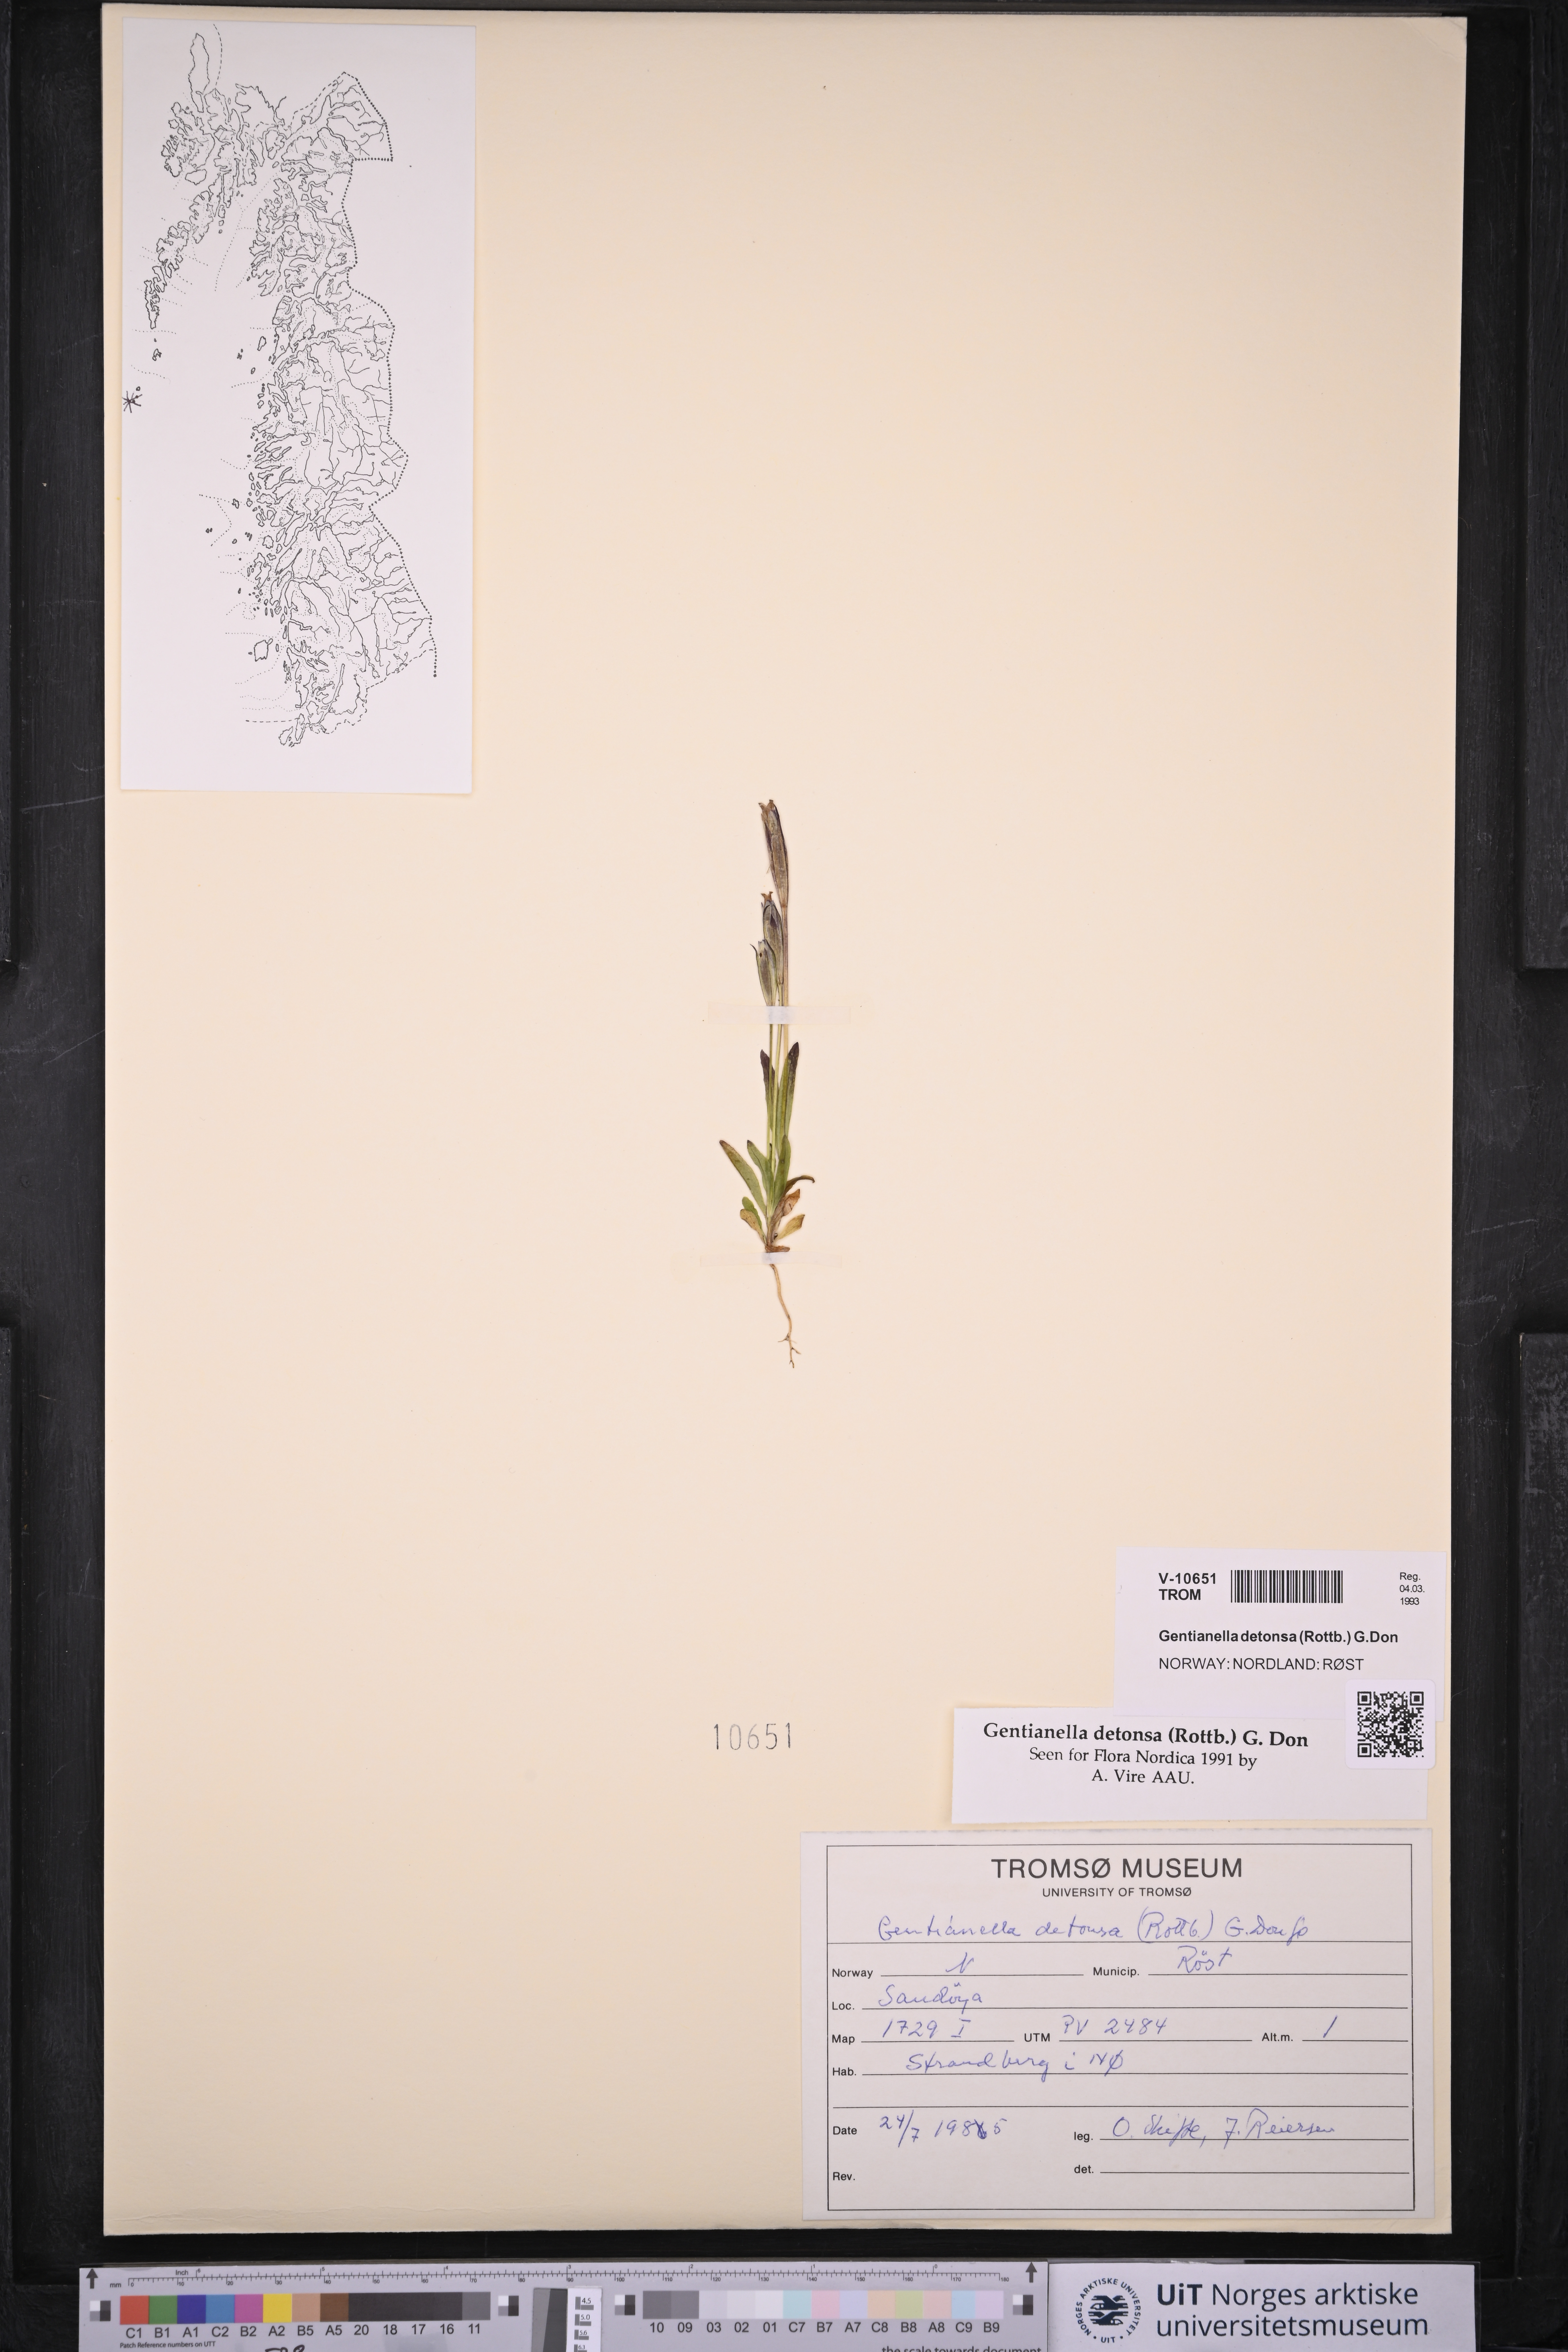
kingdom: Plantae
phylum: Tracheophyta
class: Magnoliopsida
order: Gentianales
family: Gentianaceae
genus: Gentianopsis
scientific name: Gentianopsis detonsa
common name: Fringed-gentian
